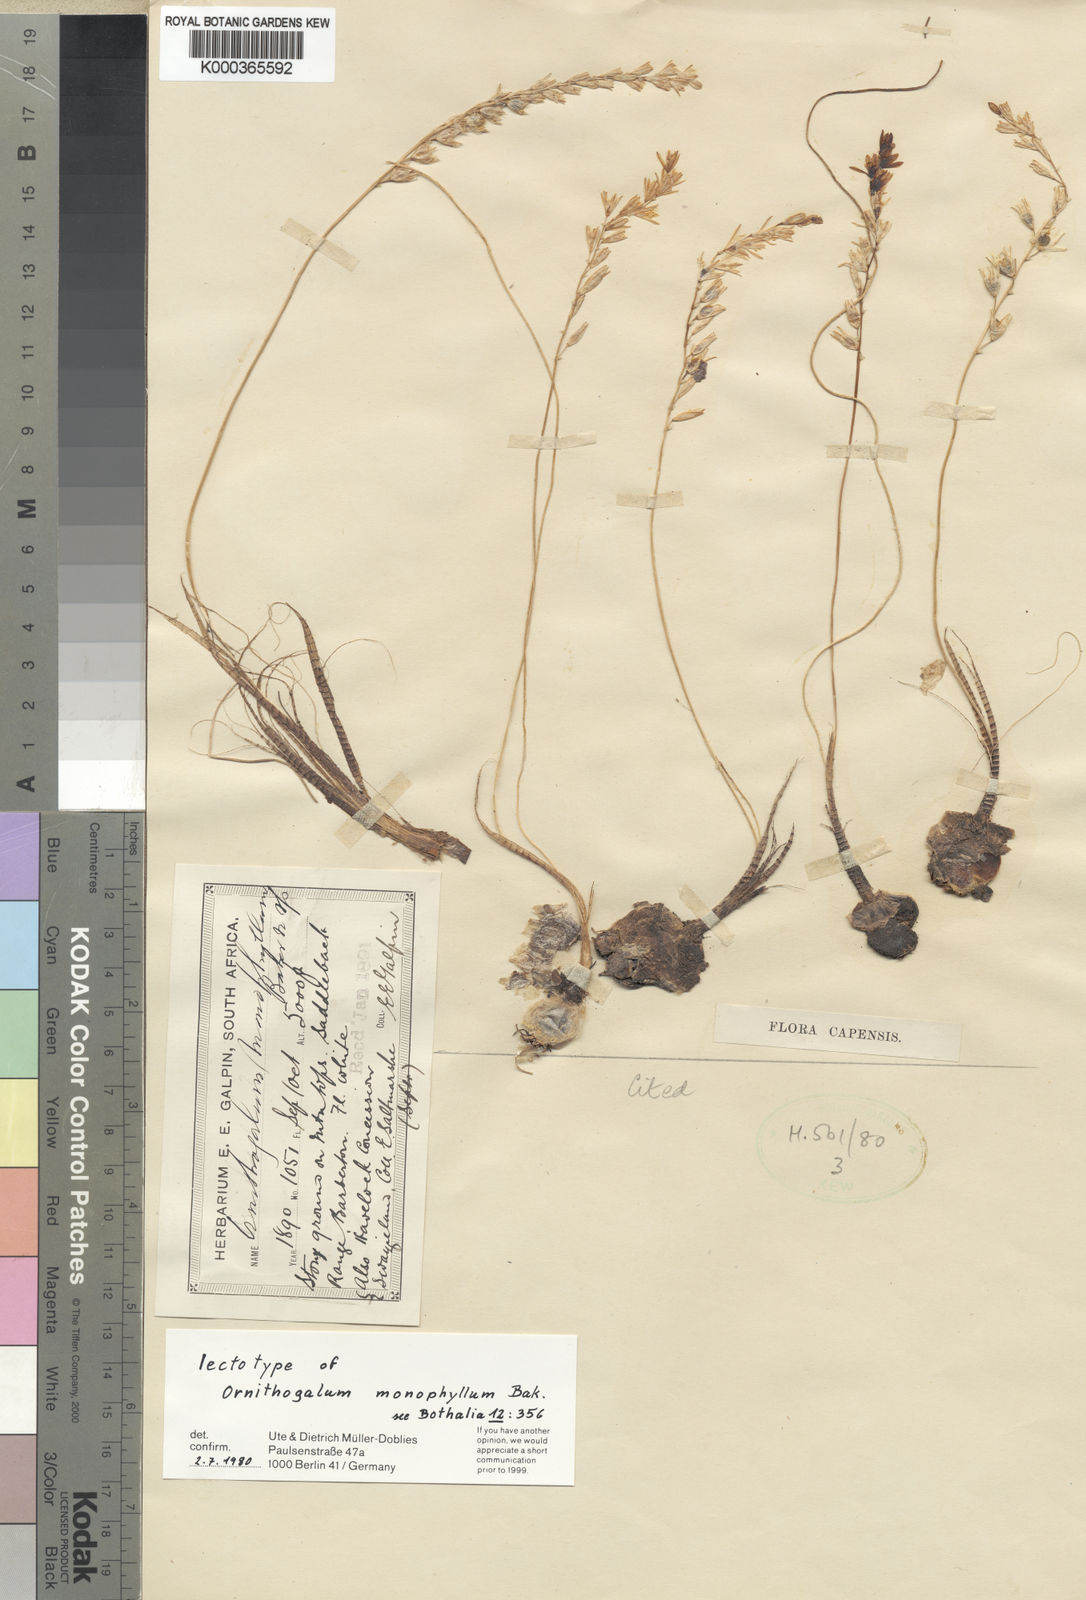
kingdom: Plantae
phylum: Tracheophyta
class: Liliopsida
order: Asparagales
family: Asparagaceae
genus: Ornithogalum
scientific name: Ornithogalum monophyllum
